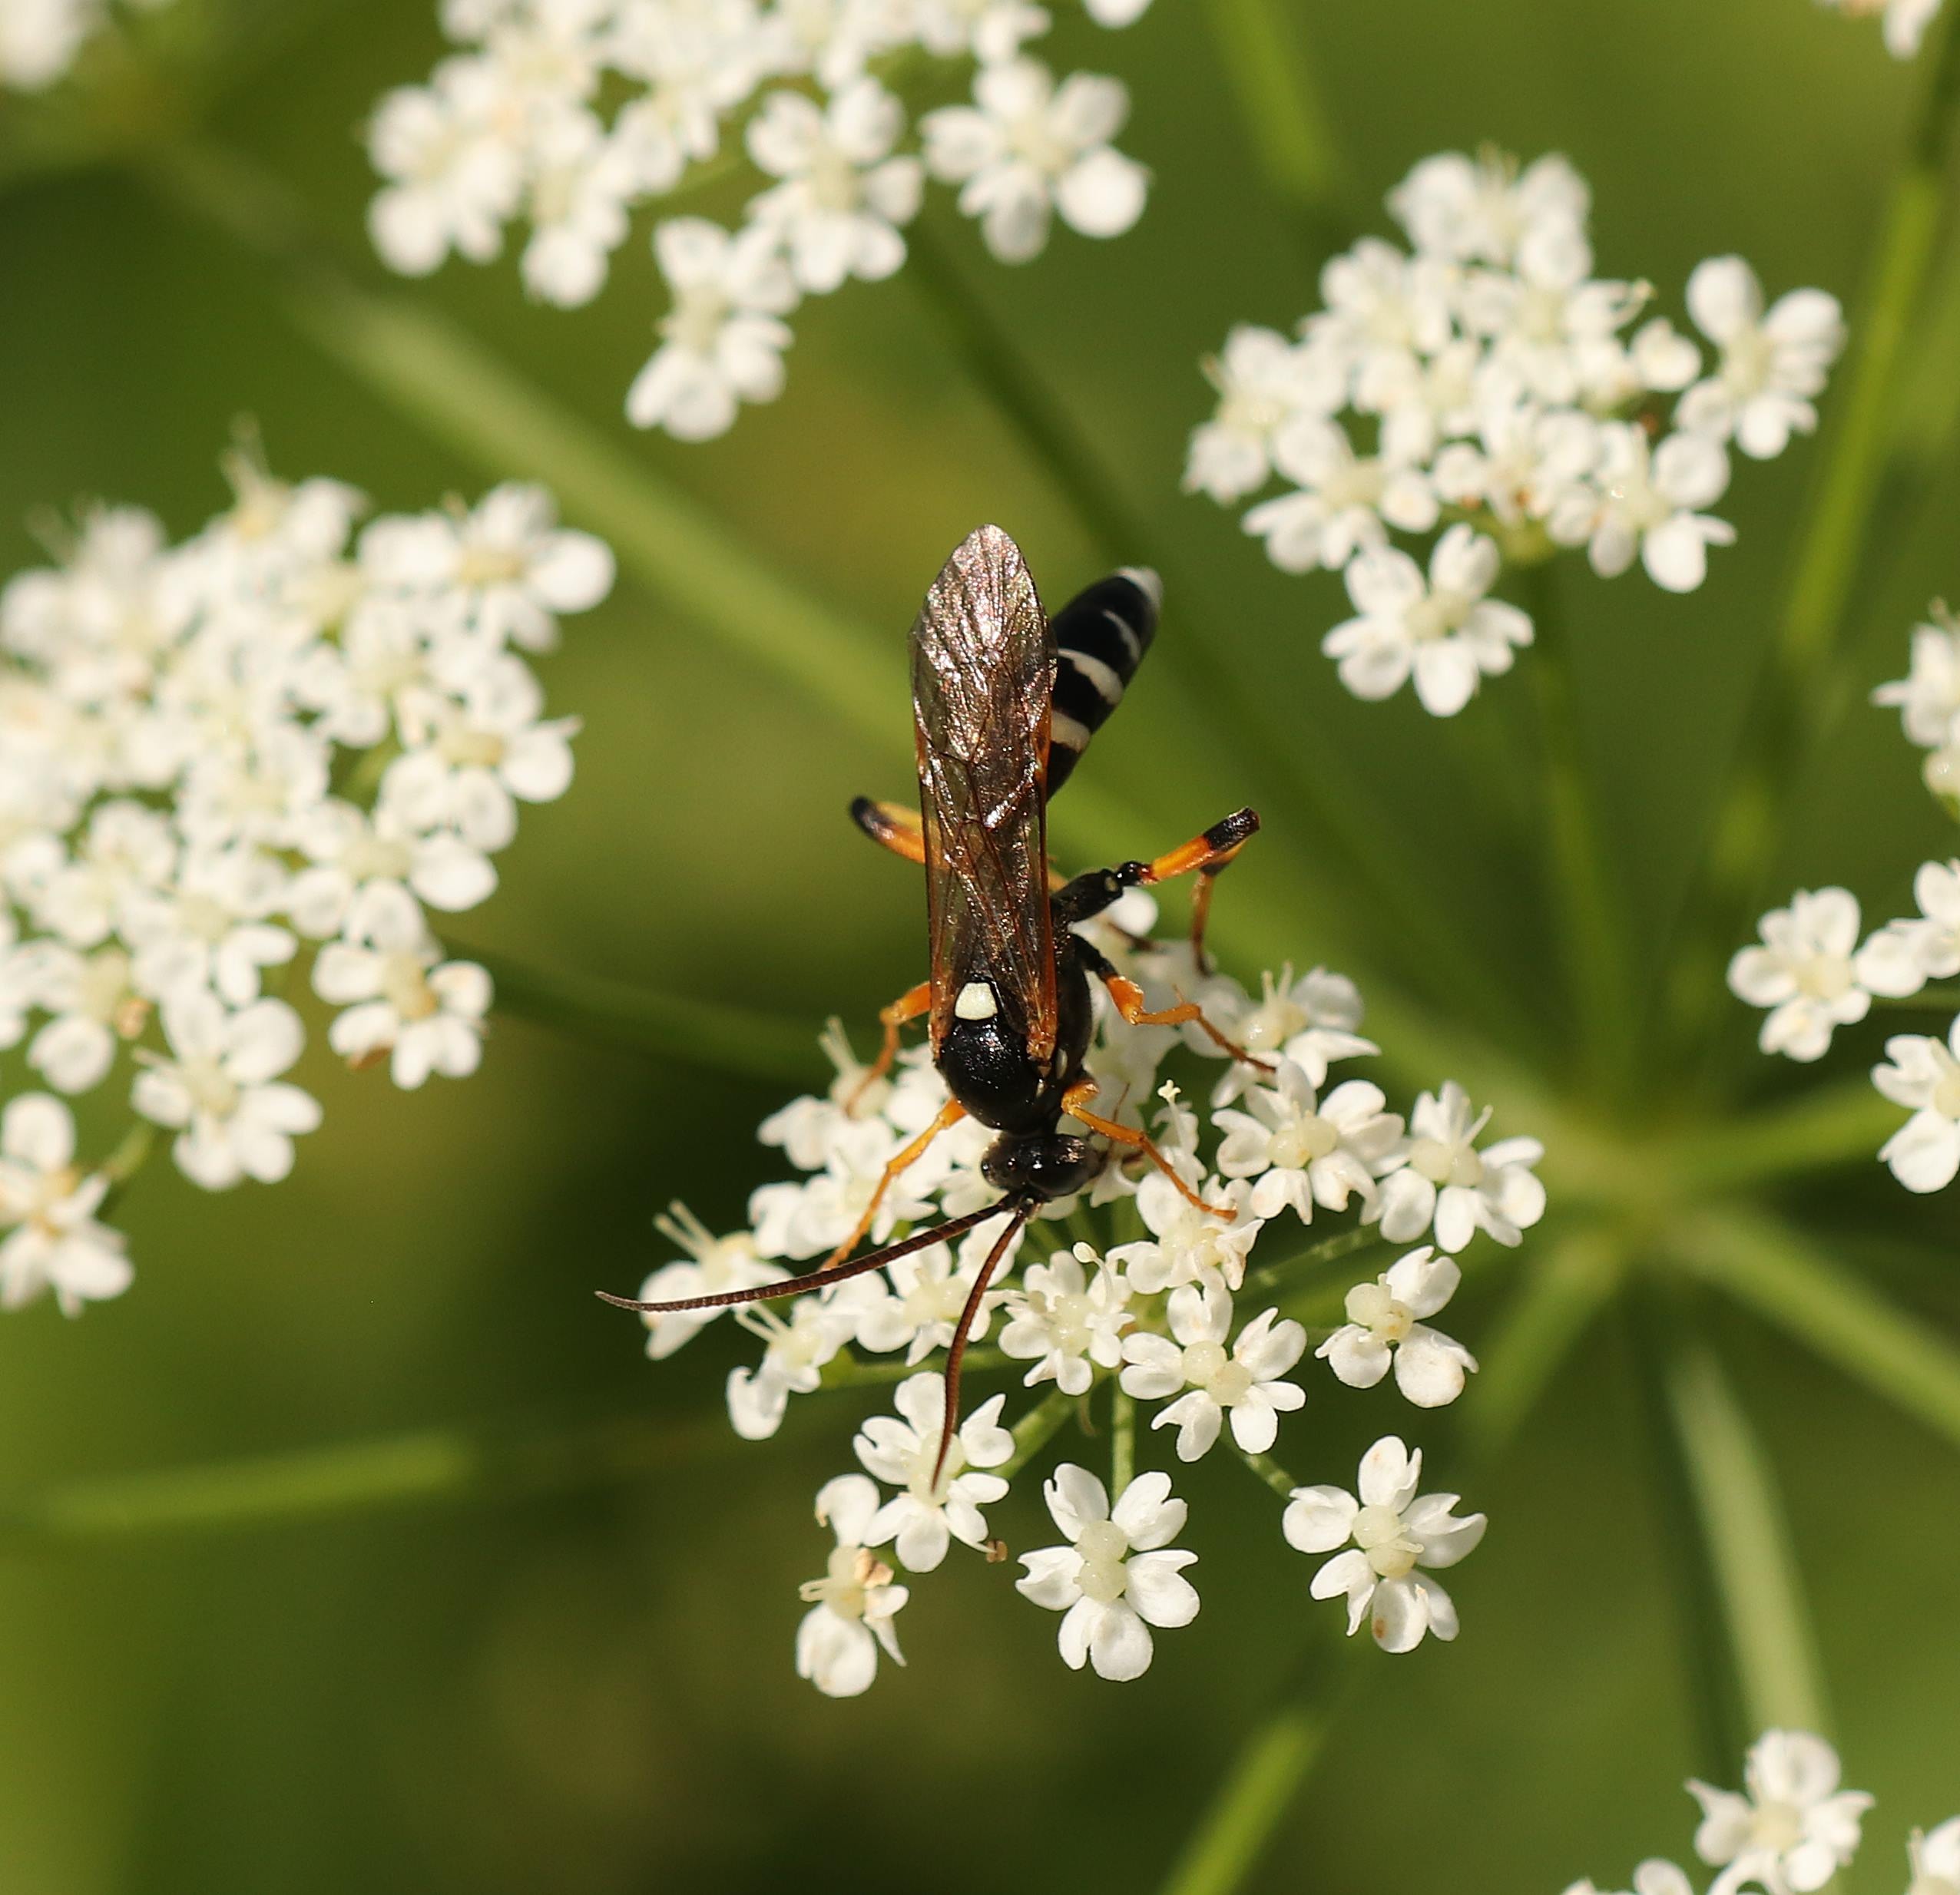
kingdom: Animalia
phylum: Arthropoda
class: Insecta
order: Hymenoptera
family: Ichneumonidae
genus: Ichneumon
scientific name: Ichneumon sarcitorius
